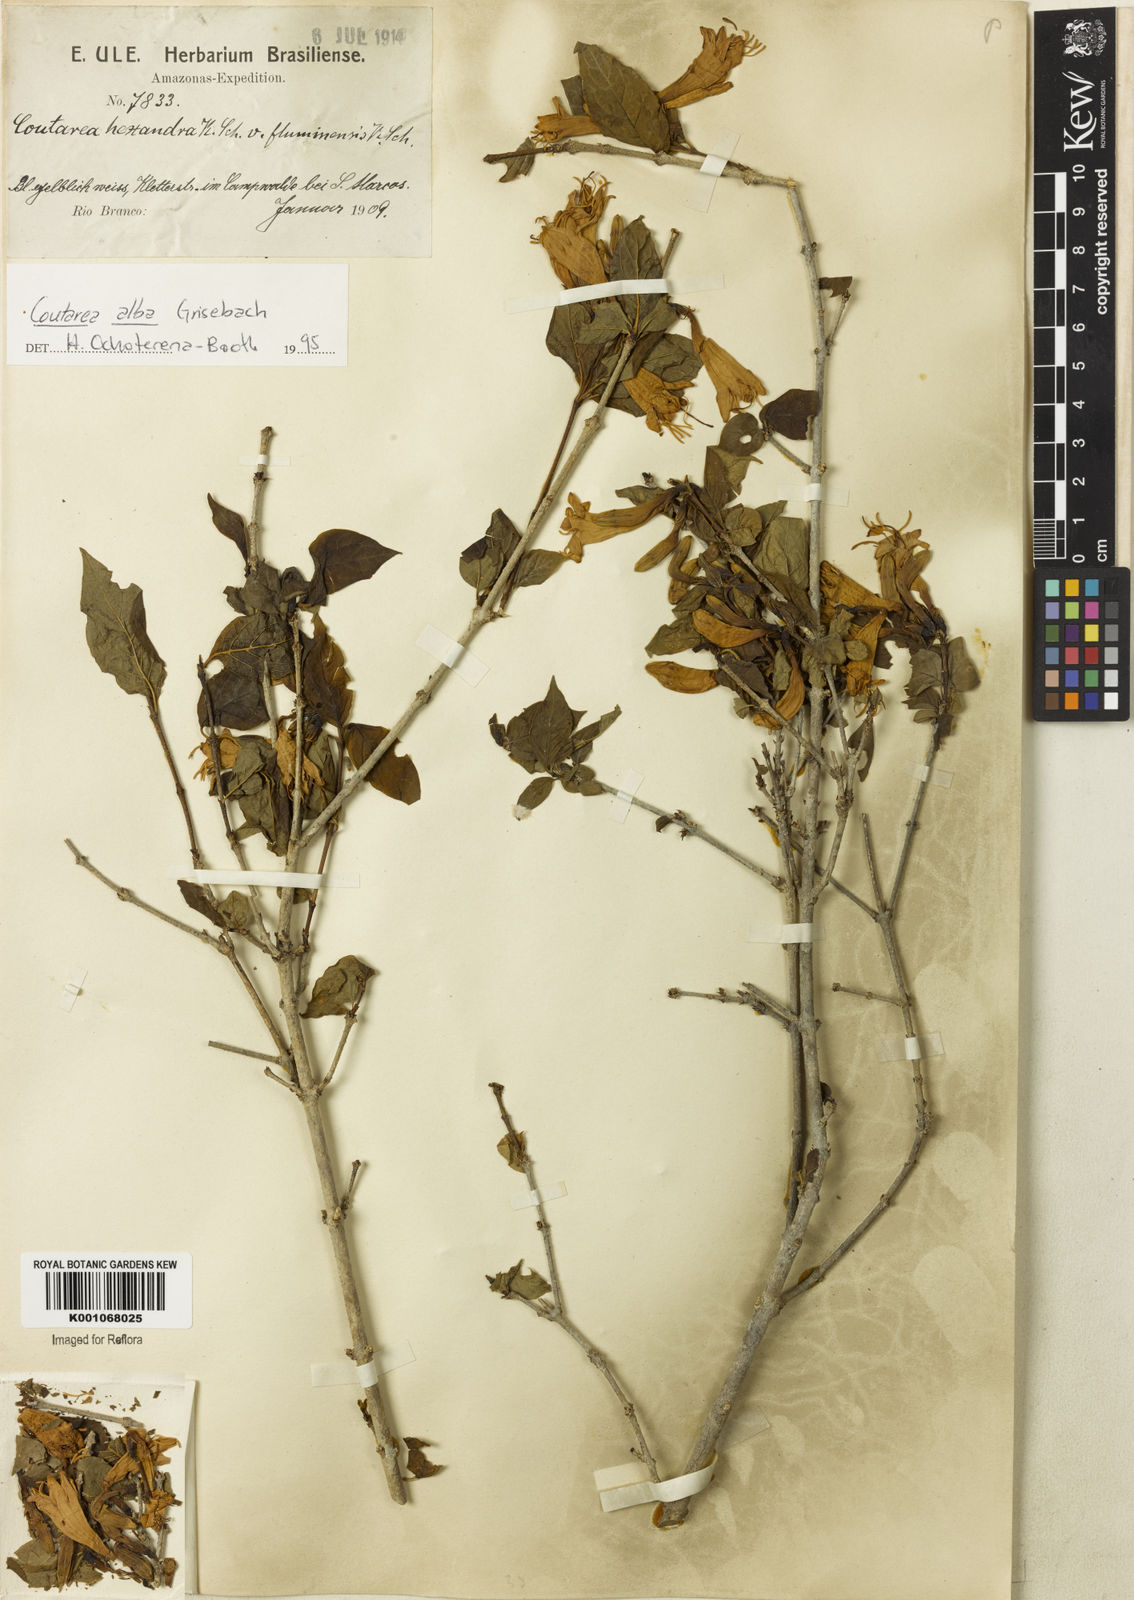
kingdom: Plantae
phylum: Tracheophyta
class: Magnoliopsida
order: Gentianales
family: Rubiaceae
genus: Coutarea
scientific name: Coutarea alba
